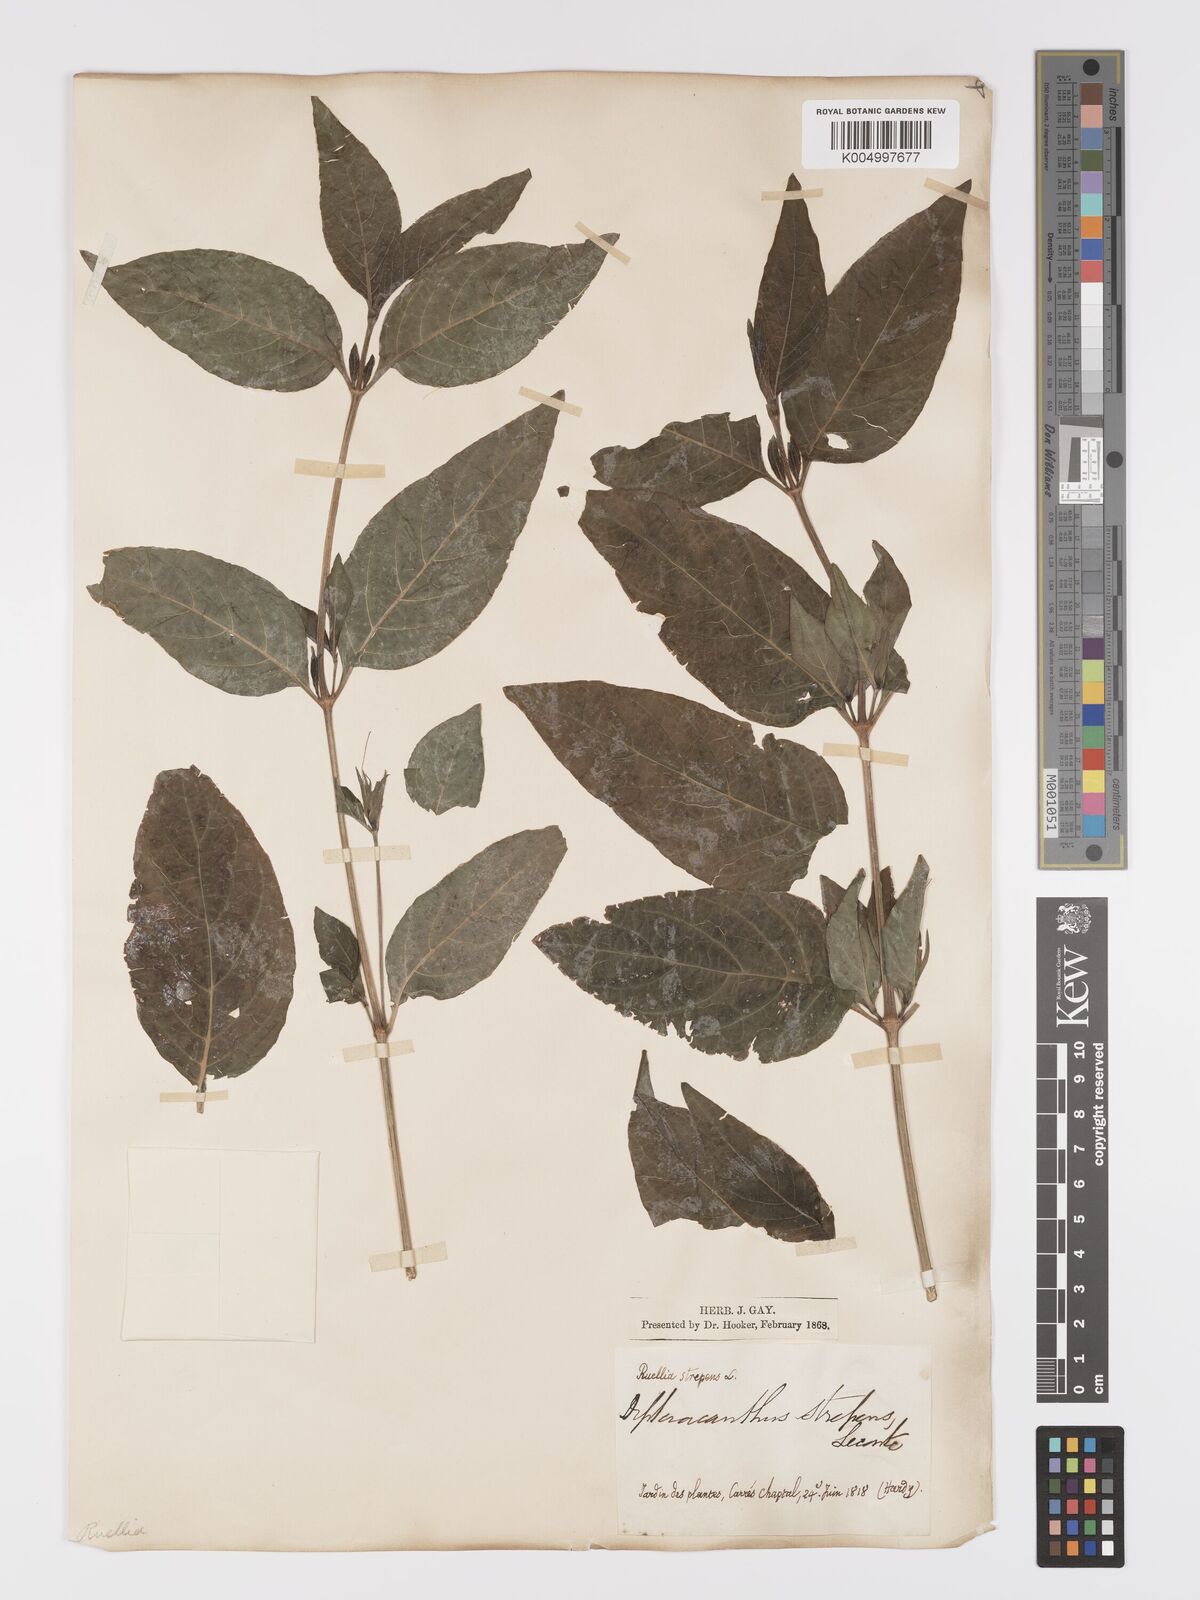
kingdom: Plantae
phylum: Tracheophyta
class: Magnoliopsida
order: Lamiales
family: Acanthaceae
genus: Ruellia
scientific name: Ruellia strepens
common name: Limestone wild petunia
